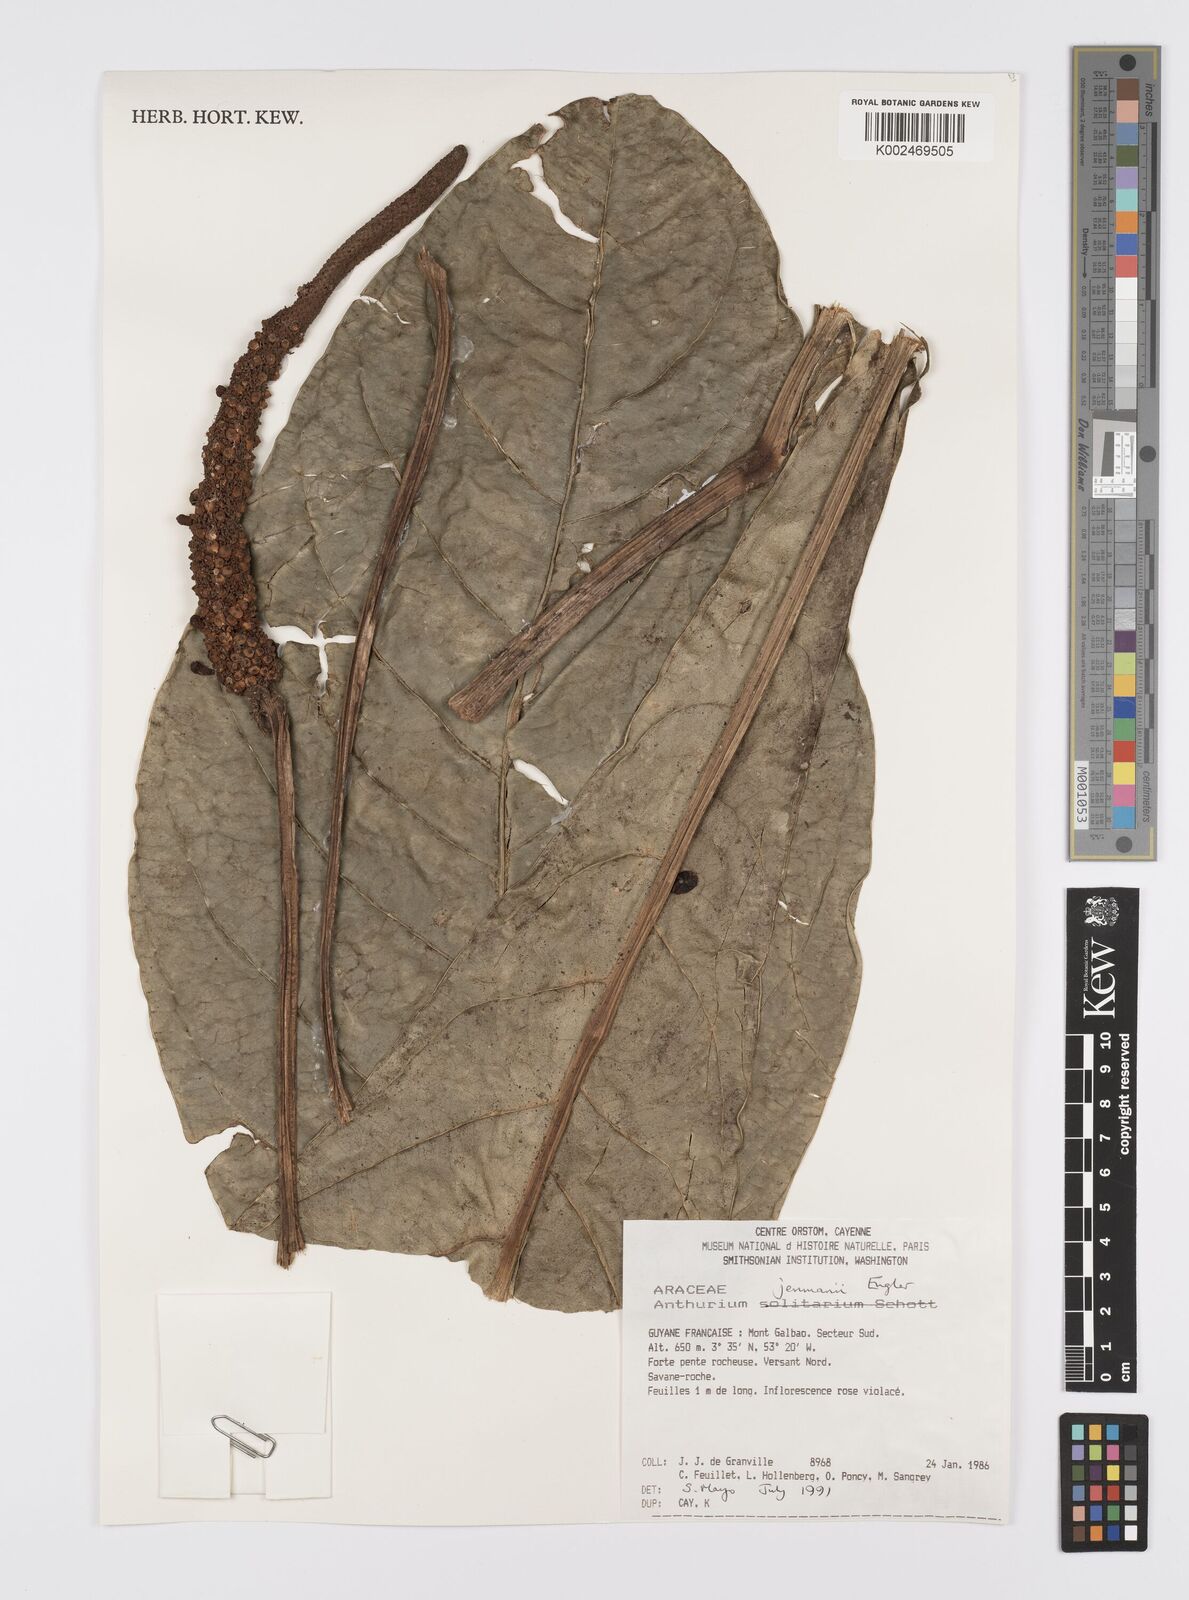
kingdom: Plantae
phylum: Tracheophyta
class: Liliopsida
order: Alismatales
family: Araceae
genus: Anthurium
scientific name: Anthurium jenmanii
